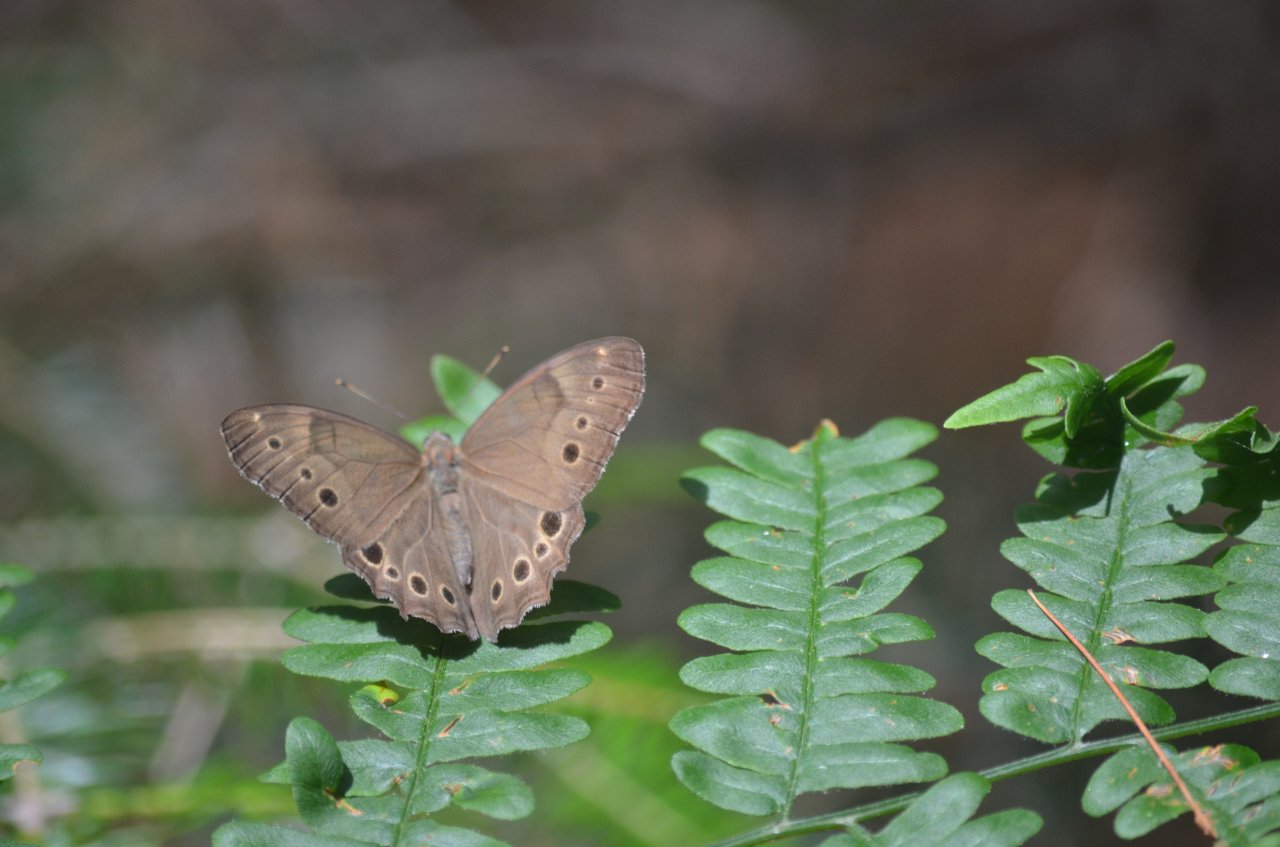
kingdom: Animalia
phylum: Arthropoda
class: Insecta
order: Lepidoptera
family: Nymphalidae
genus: Lethe
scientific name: Lethe anthedon
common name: Northern Pearly-Eye
